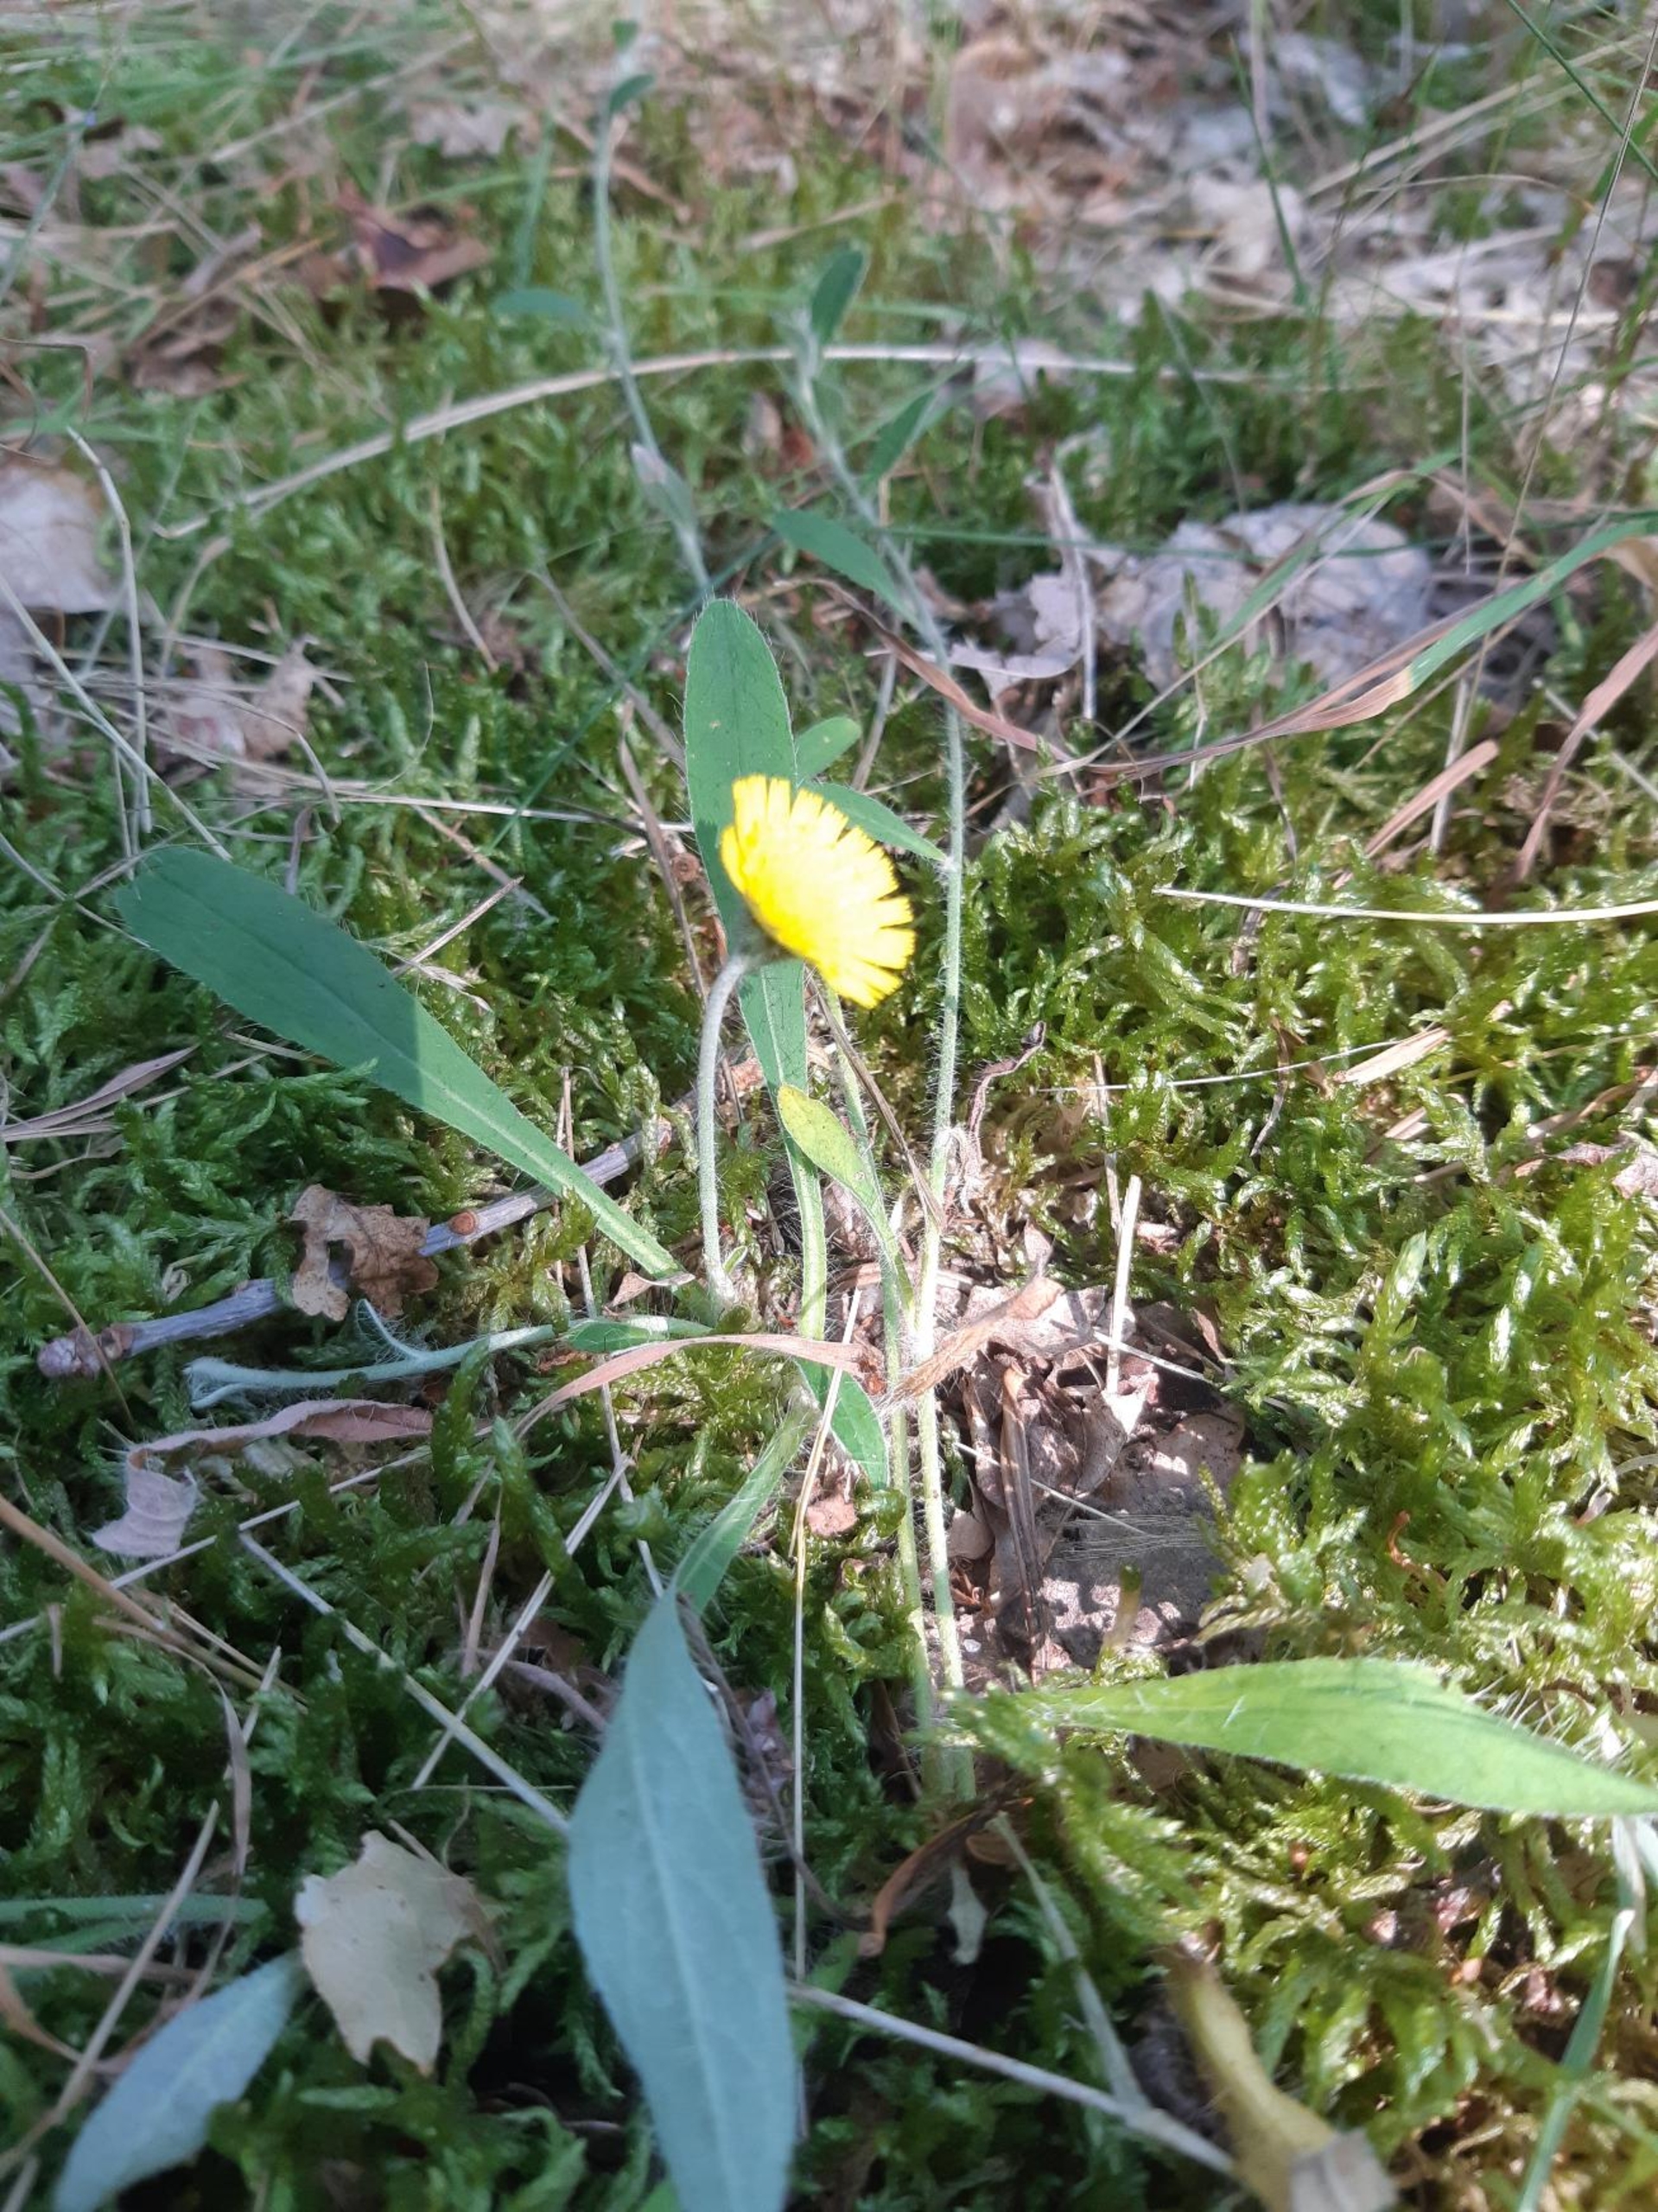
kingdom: Plantae
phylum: Tracheophyta
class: Magnoliopsida
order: Asterales
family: Asteraceae
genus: Pilosella
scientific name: Pilosella officinarum
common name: Håret høgeurt
